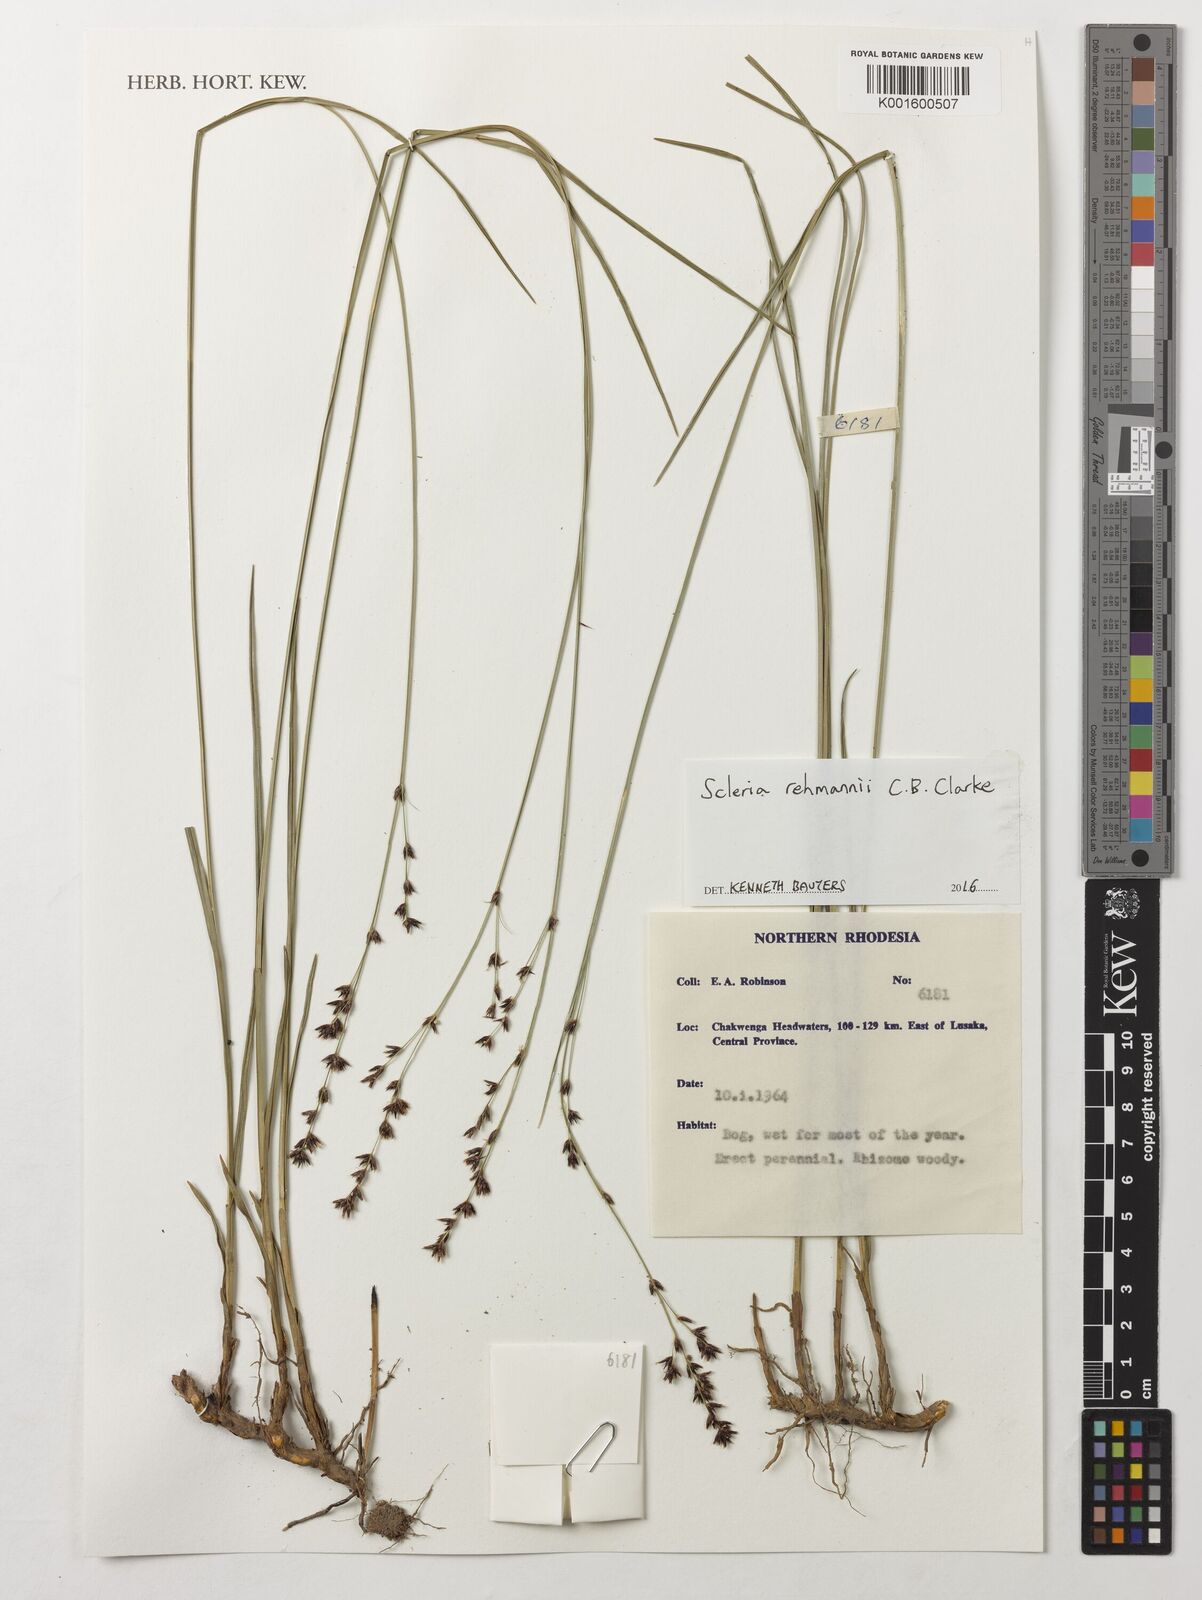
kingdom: Plantae
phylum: Tracheophyta
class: Liliopsida
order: Poales
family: Cyperaceae
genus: Scleria
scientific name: Scleria rehmannii
